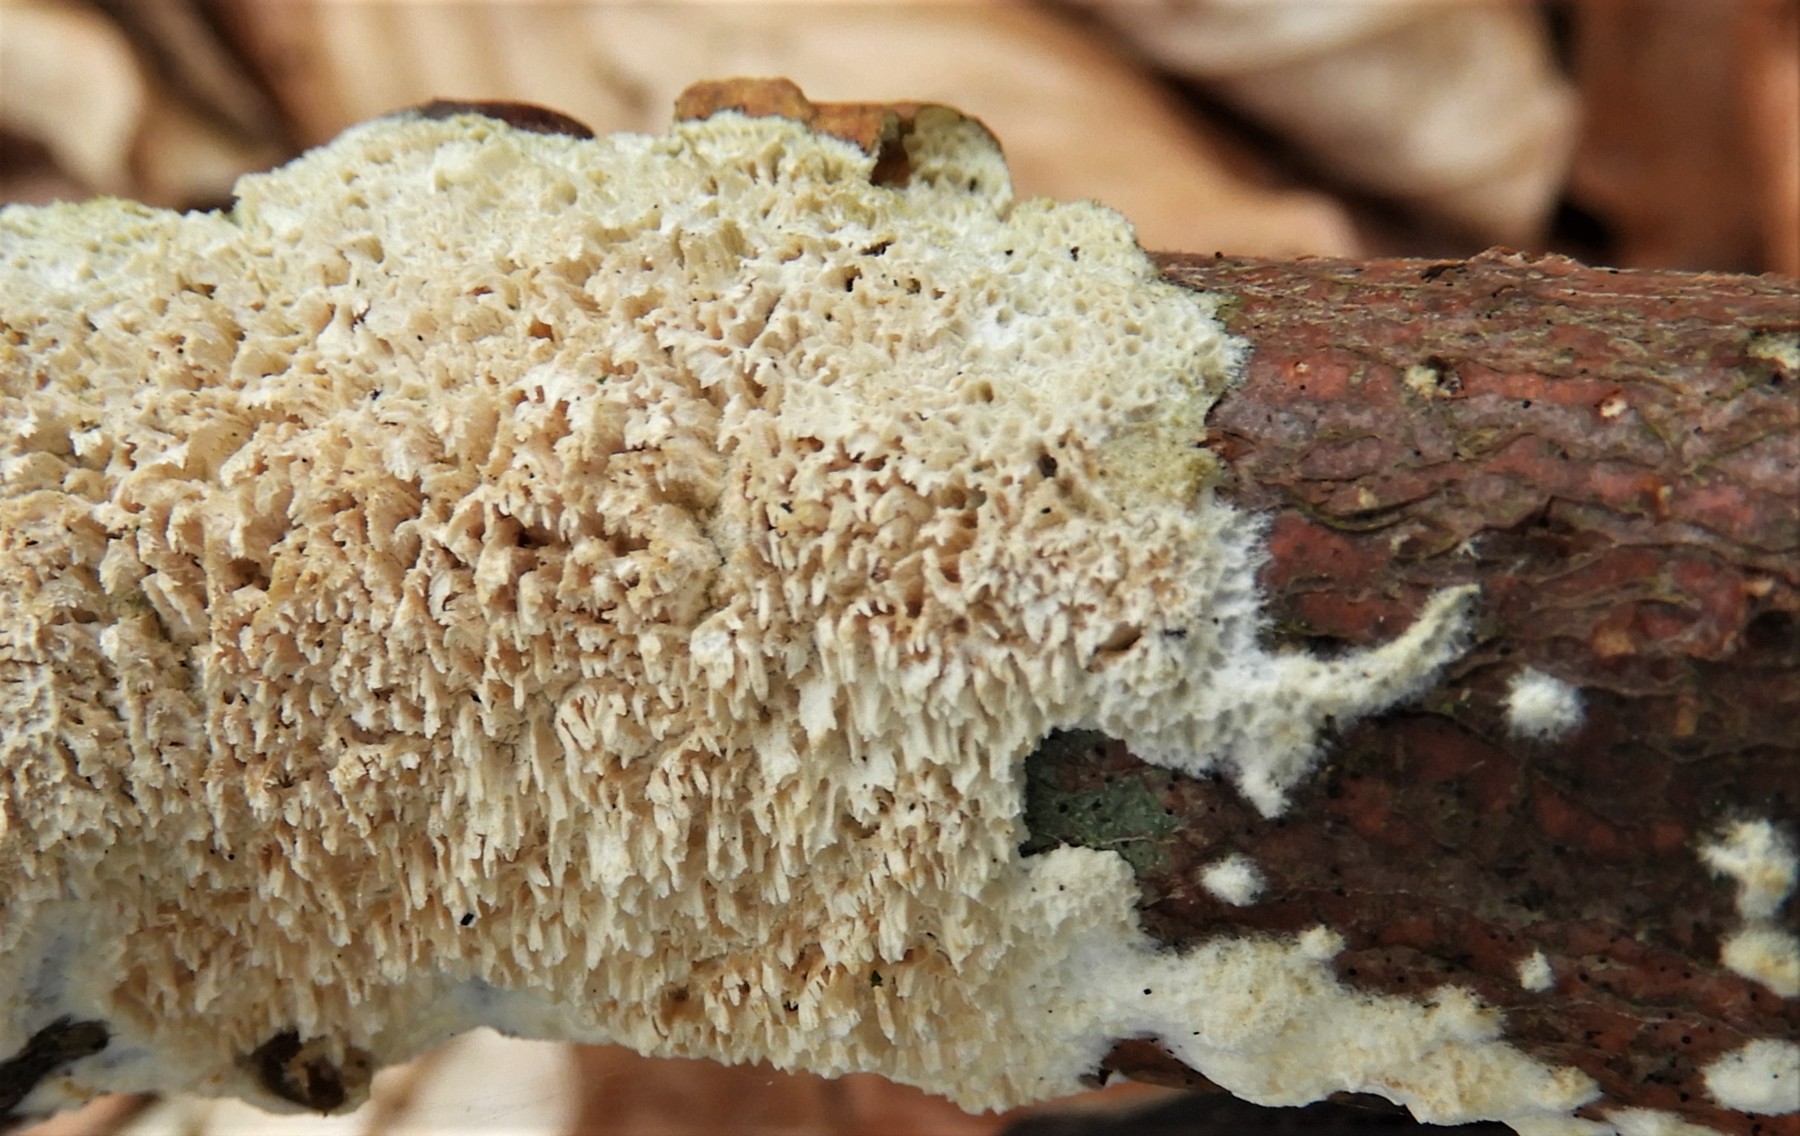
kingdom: Fungi
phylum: Basidiomycota
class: Agaricomycetes
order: Hymenochaetales
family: Schizoporaceae
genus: Xylodon
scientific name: Xylodon radula
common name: grovtandet kalkskind
